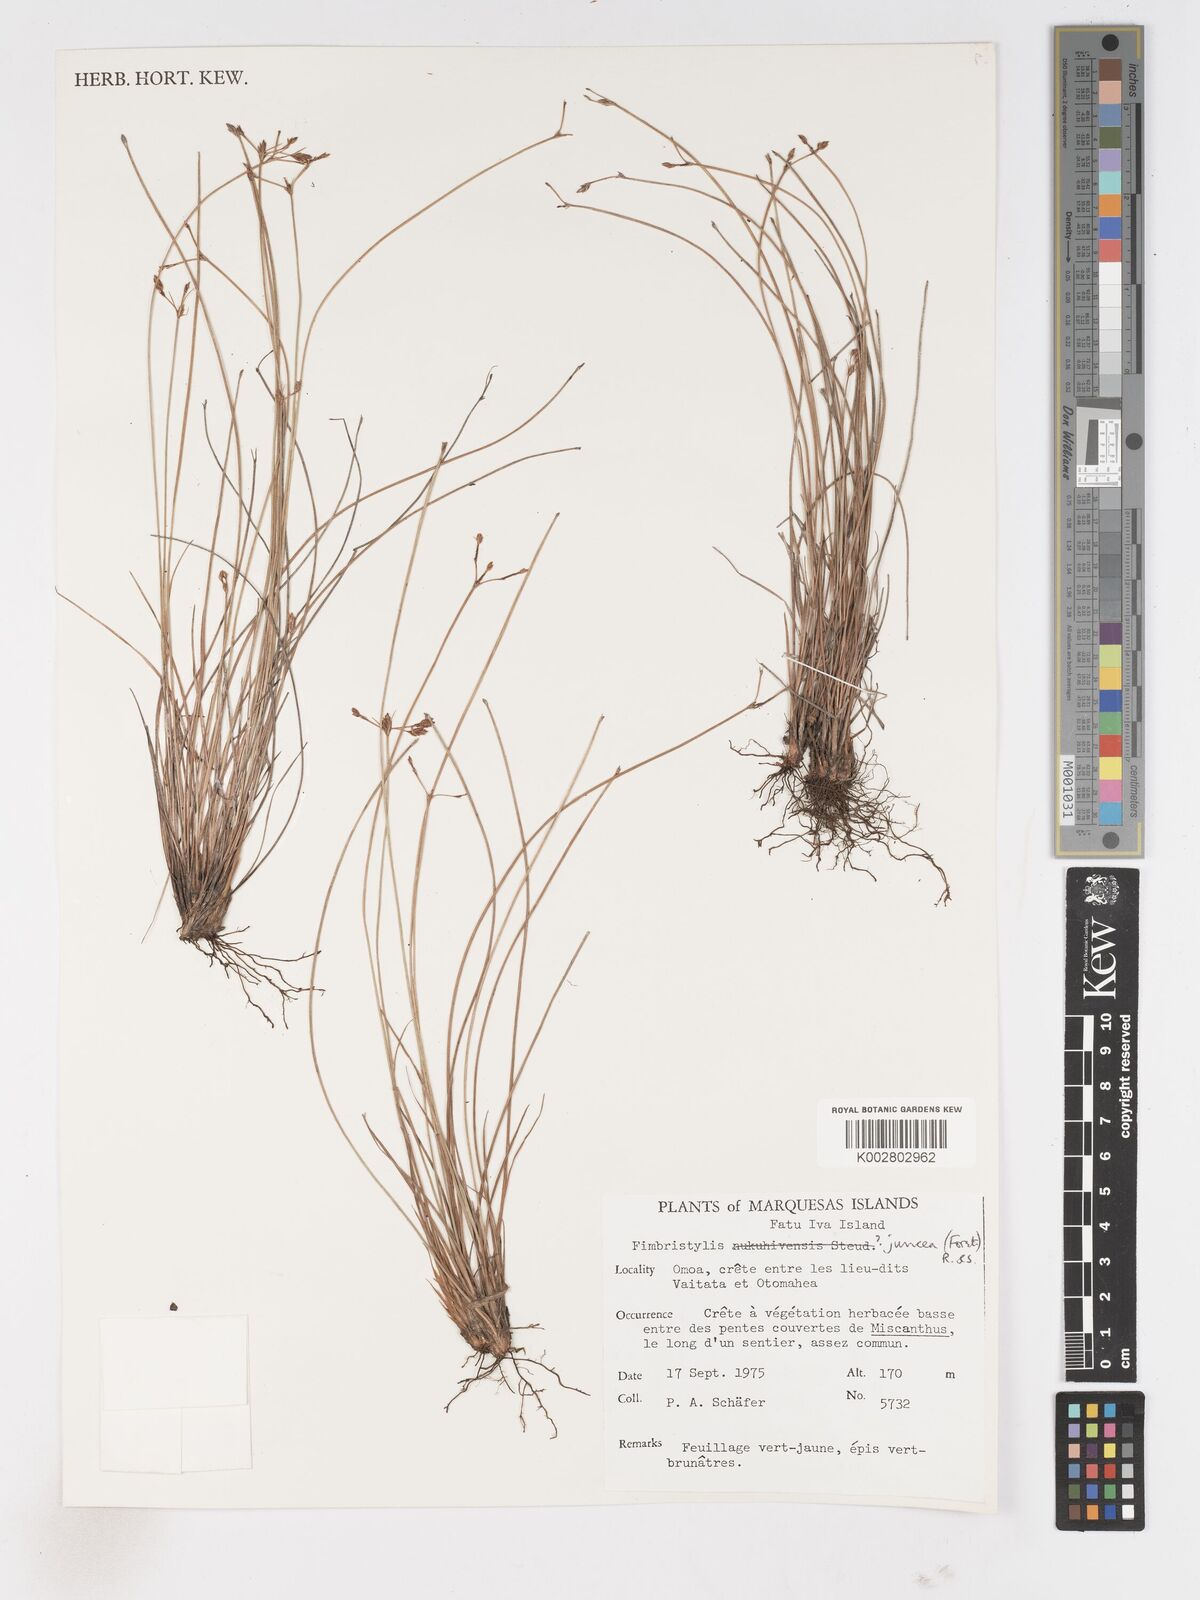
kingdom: Plantae
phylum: Tracheophyta
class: Liliopsida
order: Poales
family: Cyperaceae
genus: Fimbristylis
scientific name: Fimbristylis juncea
